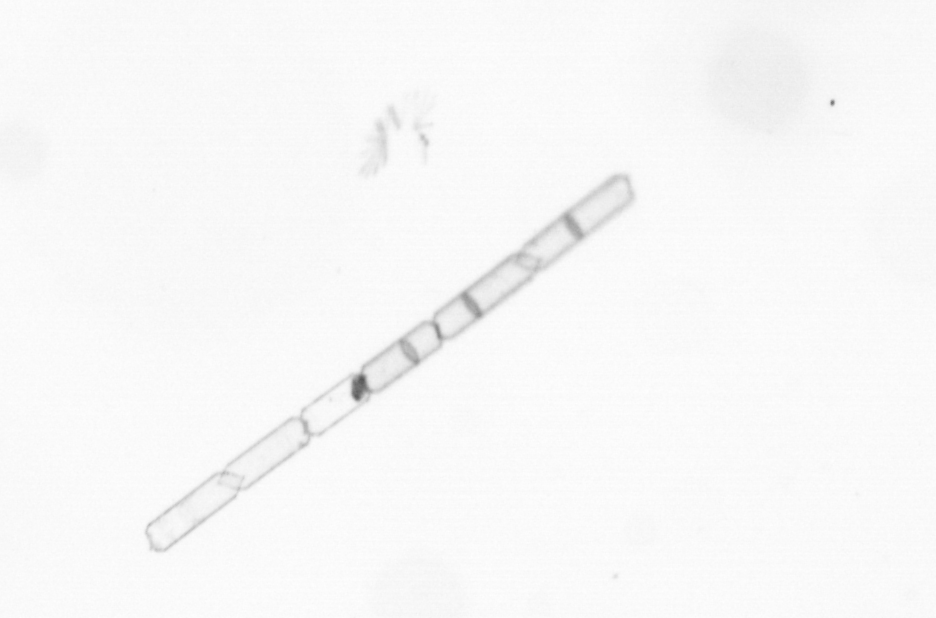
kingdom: Chromista
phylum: Ochrophyta
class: Bacillariophyceae
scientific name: Bacillariophyceae
